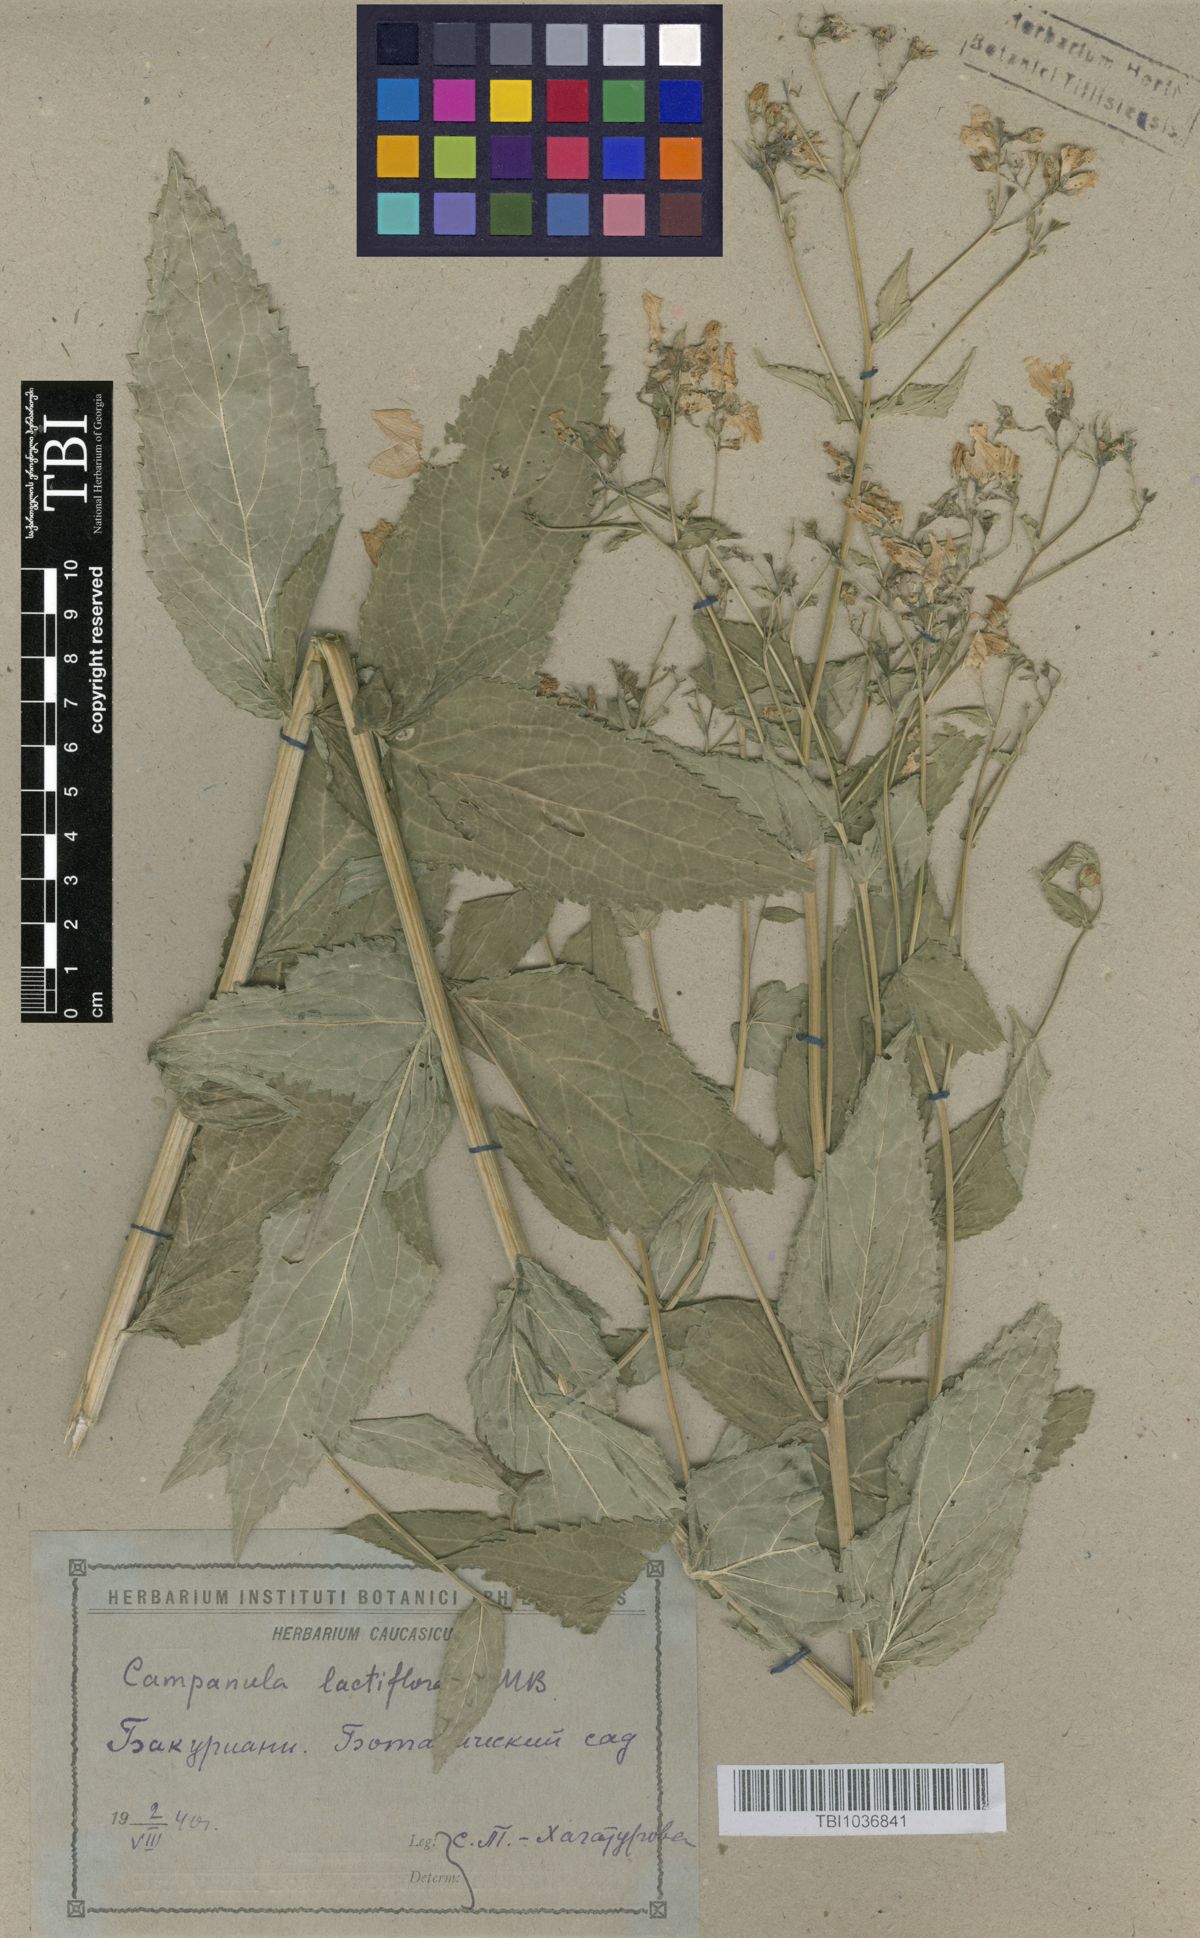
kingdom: Plantae
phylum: Tracheophyta
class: Magnoliopsida
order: Asterales
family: Campanulaceae
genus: Campanula
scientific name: Campanula lactiflora
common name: Milky bellflower
